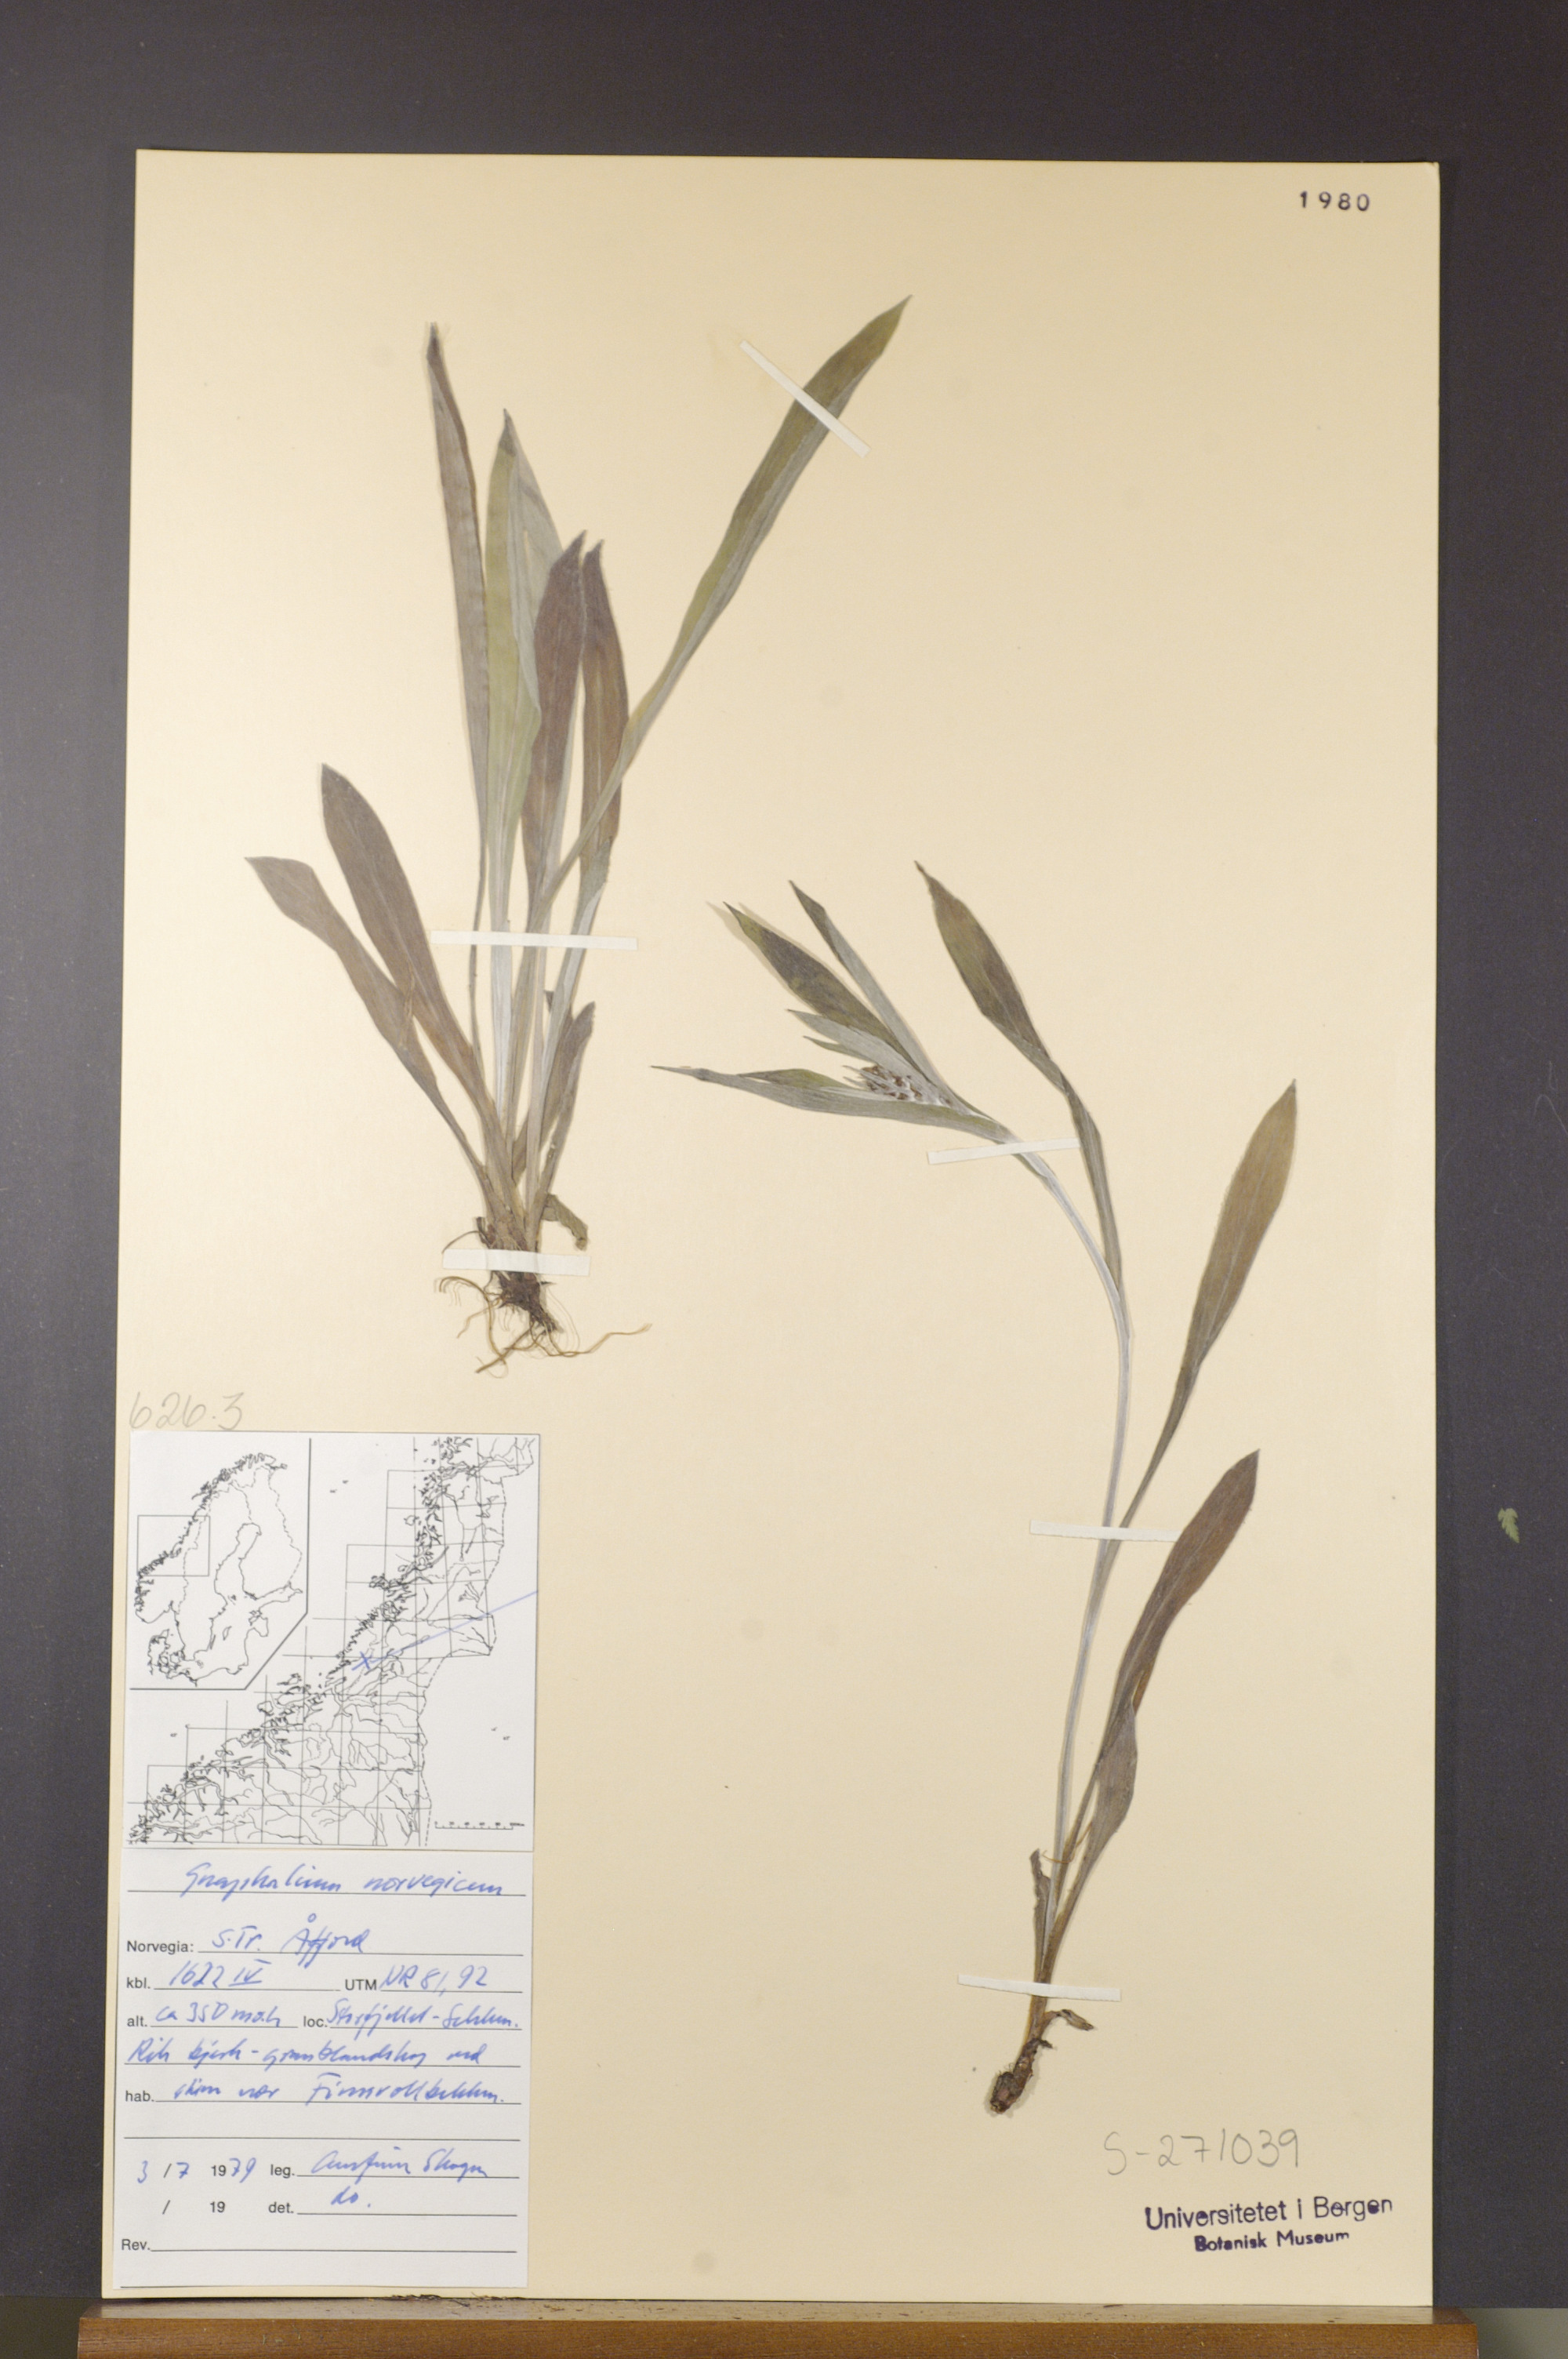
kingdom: Plantae
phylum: Tracheophyta
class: Magnoliopsida
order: Asterales
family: Asteraceae
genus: Omalotheca
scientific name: Omalotheca norvegica
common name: Norwegian arctic-cudweed
